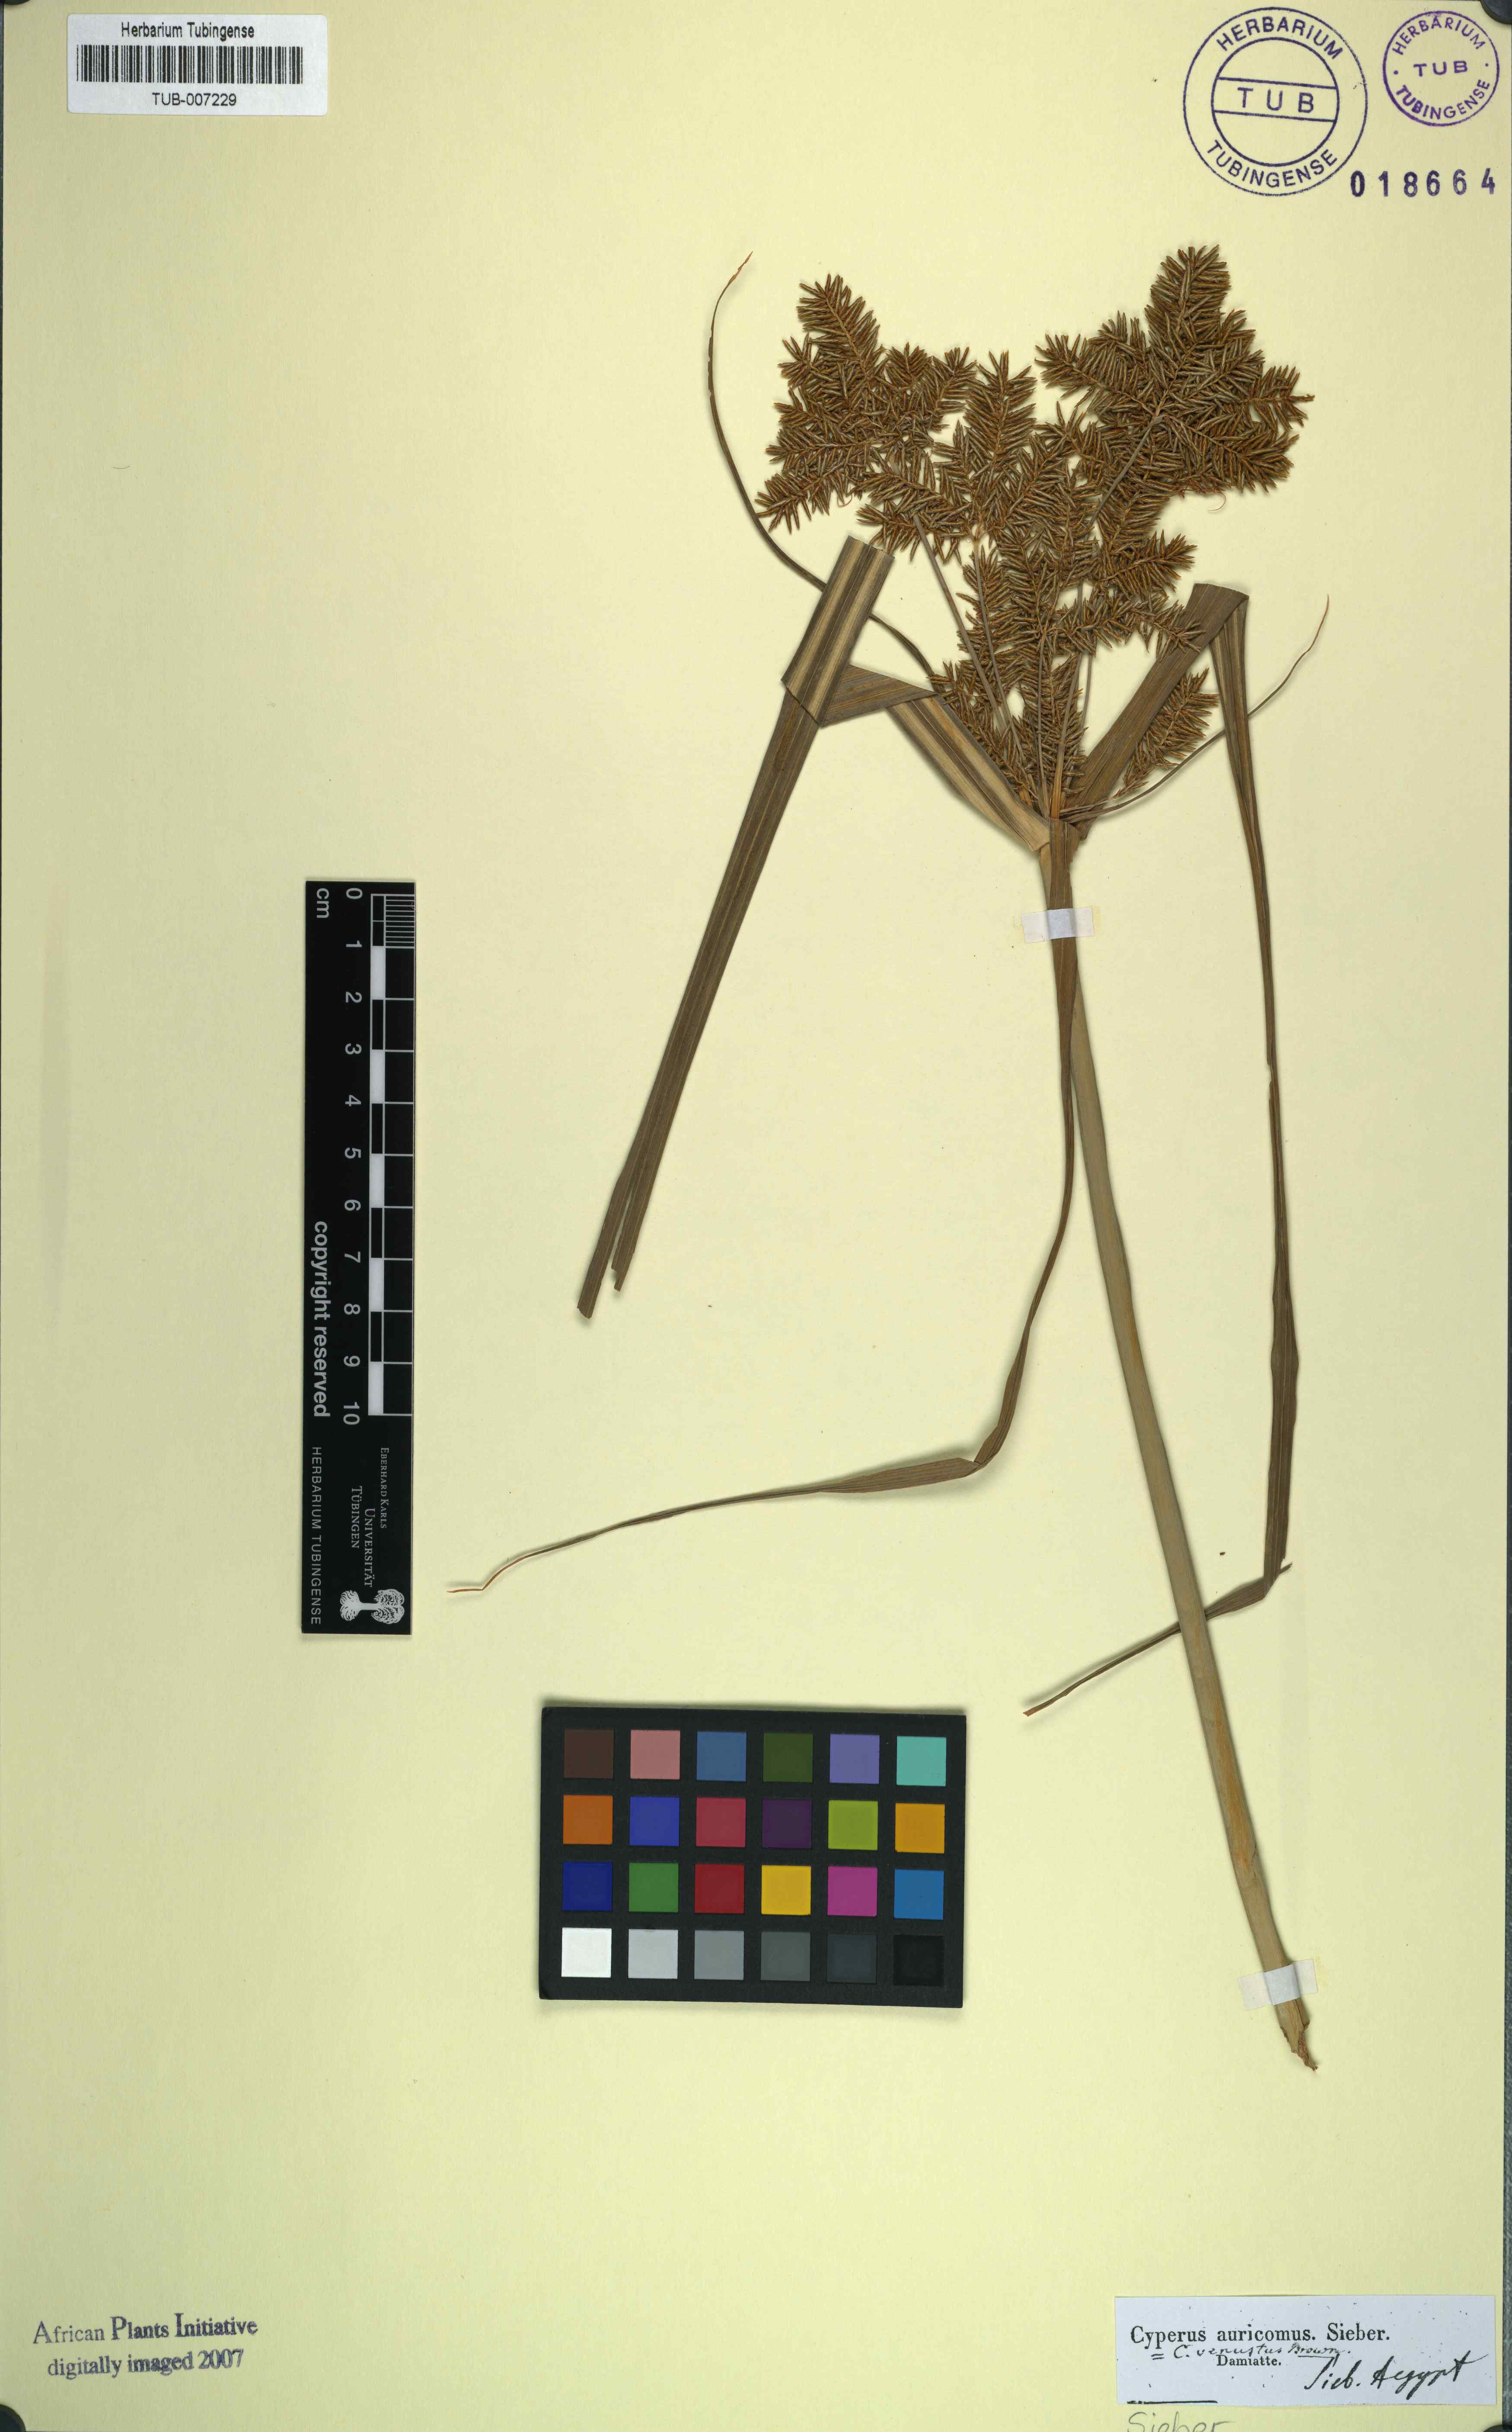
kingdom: Plantae
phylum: Tracheophyta
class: Liliopsida
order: Poales
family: Cyperaceae
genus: Cyperus
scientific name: Cyperus digitatus
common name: Finger flatsedge
